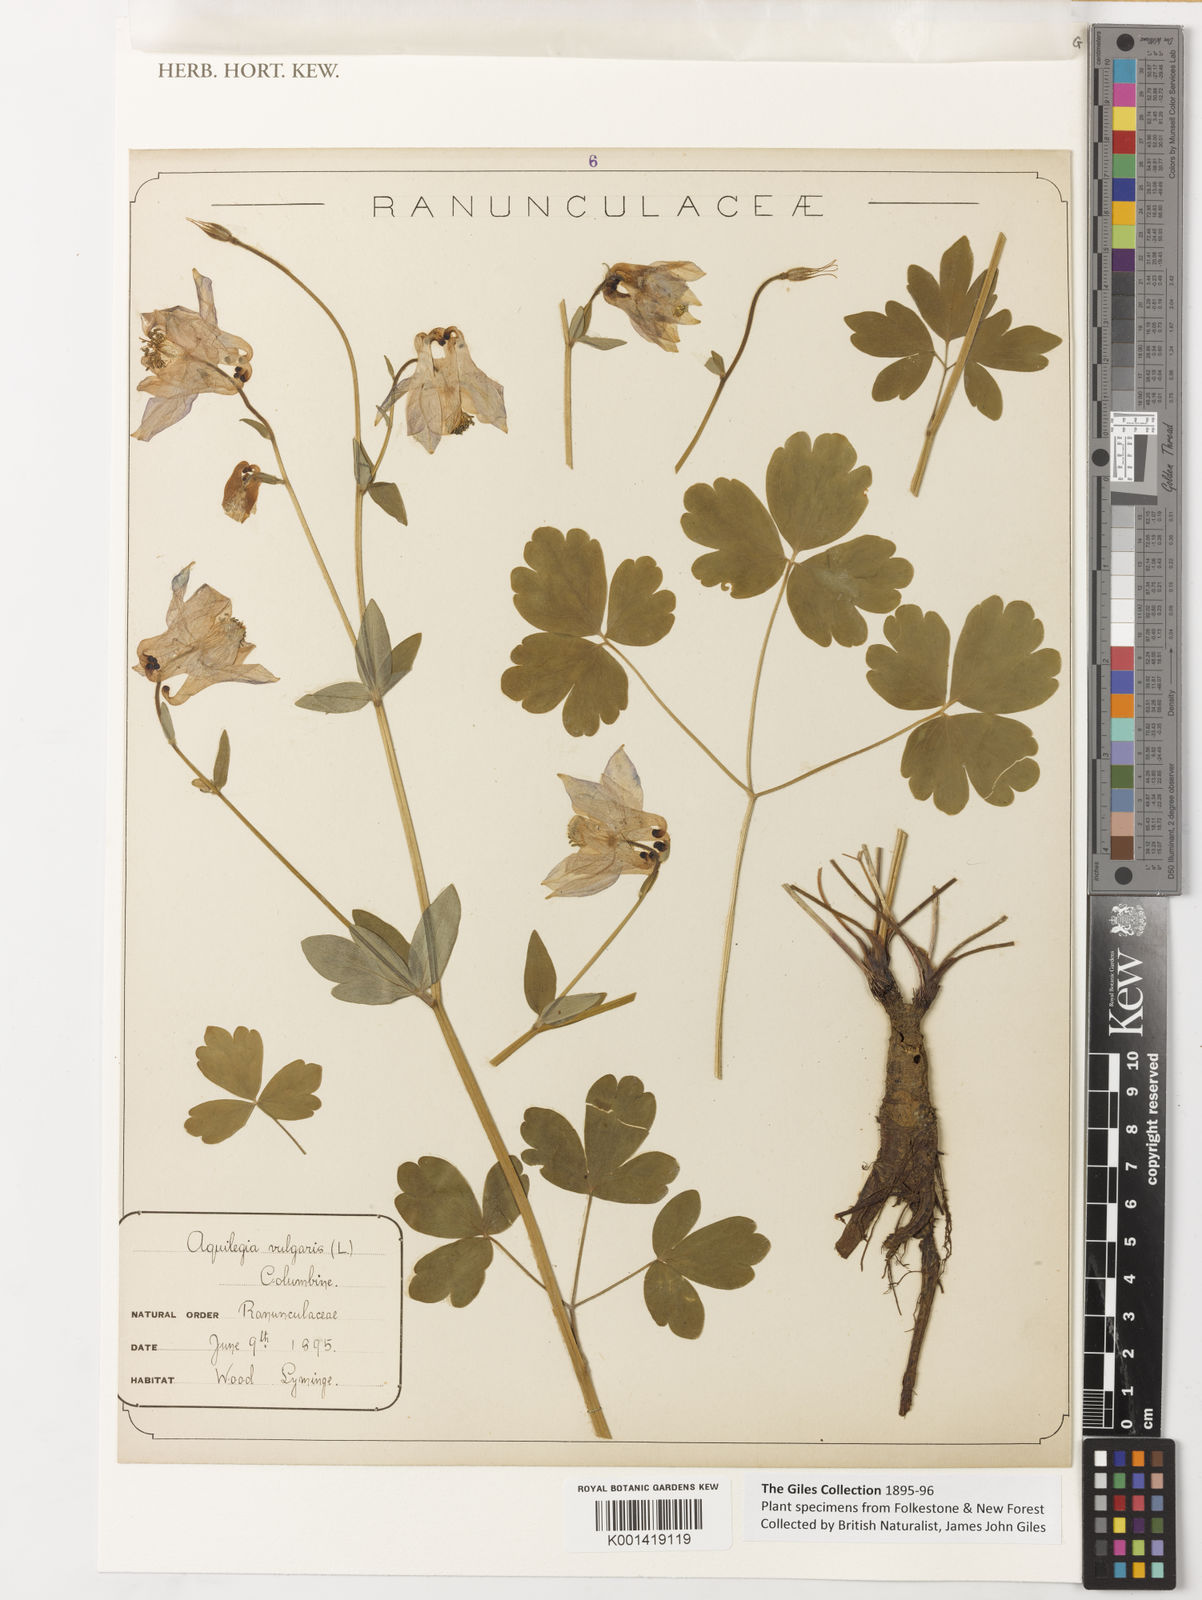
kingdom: Plantae
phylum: Tracheophyta
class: Magnoliopsida
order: Ranunculales
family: Ranunculaceae
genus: Aquilegia
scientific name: Aquilegia vulgaris
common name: Columbine
